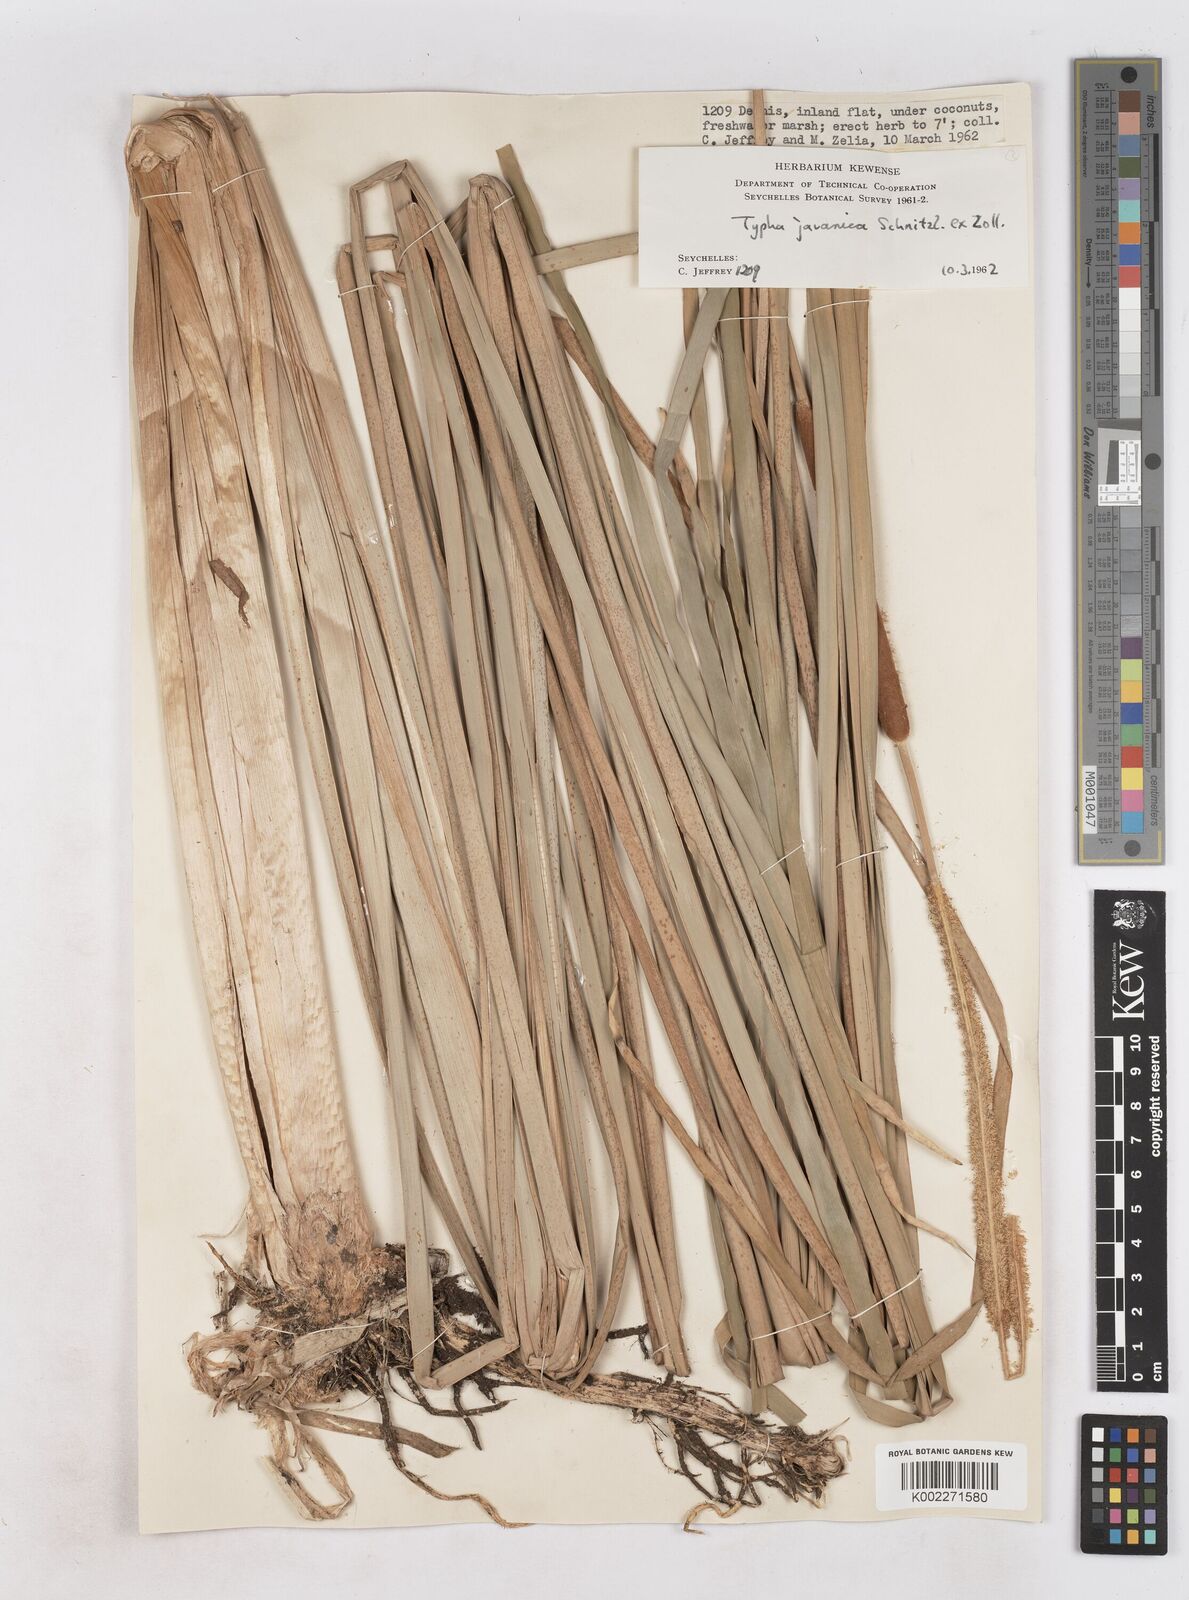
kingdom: Plantae
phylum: Tracheophyta
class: Liliopsida
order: Poales
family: Typhaceae
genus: Typha
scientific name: Typha domingensis
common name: Southern cattail
